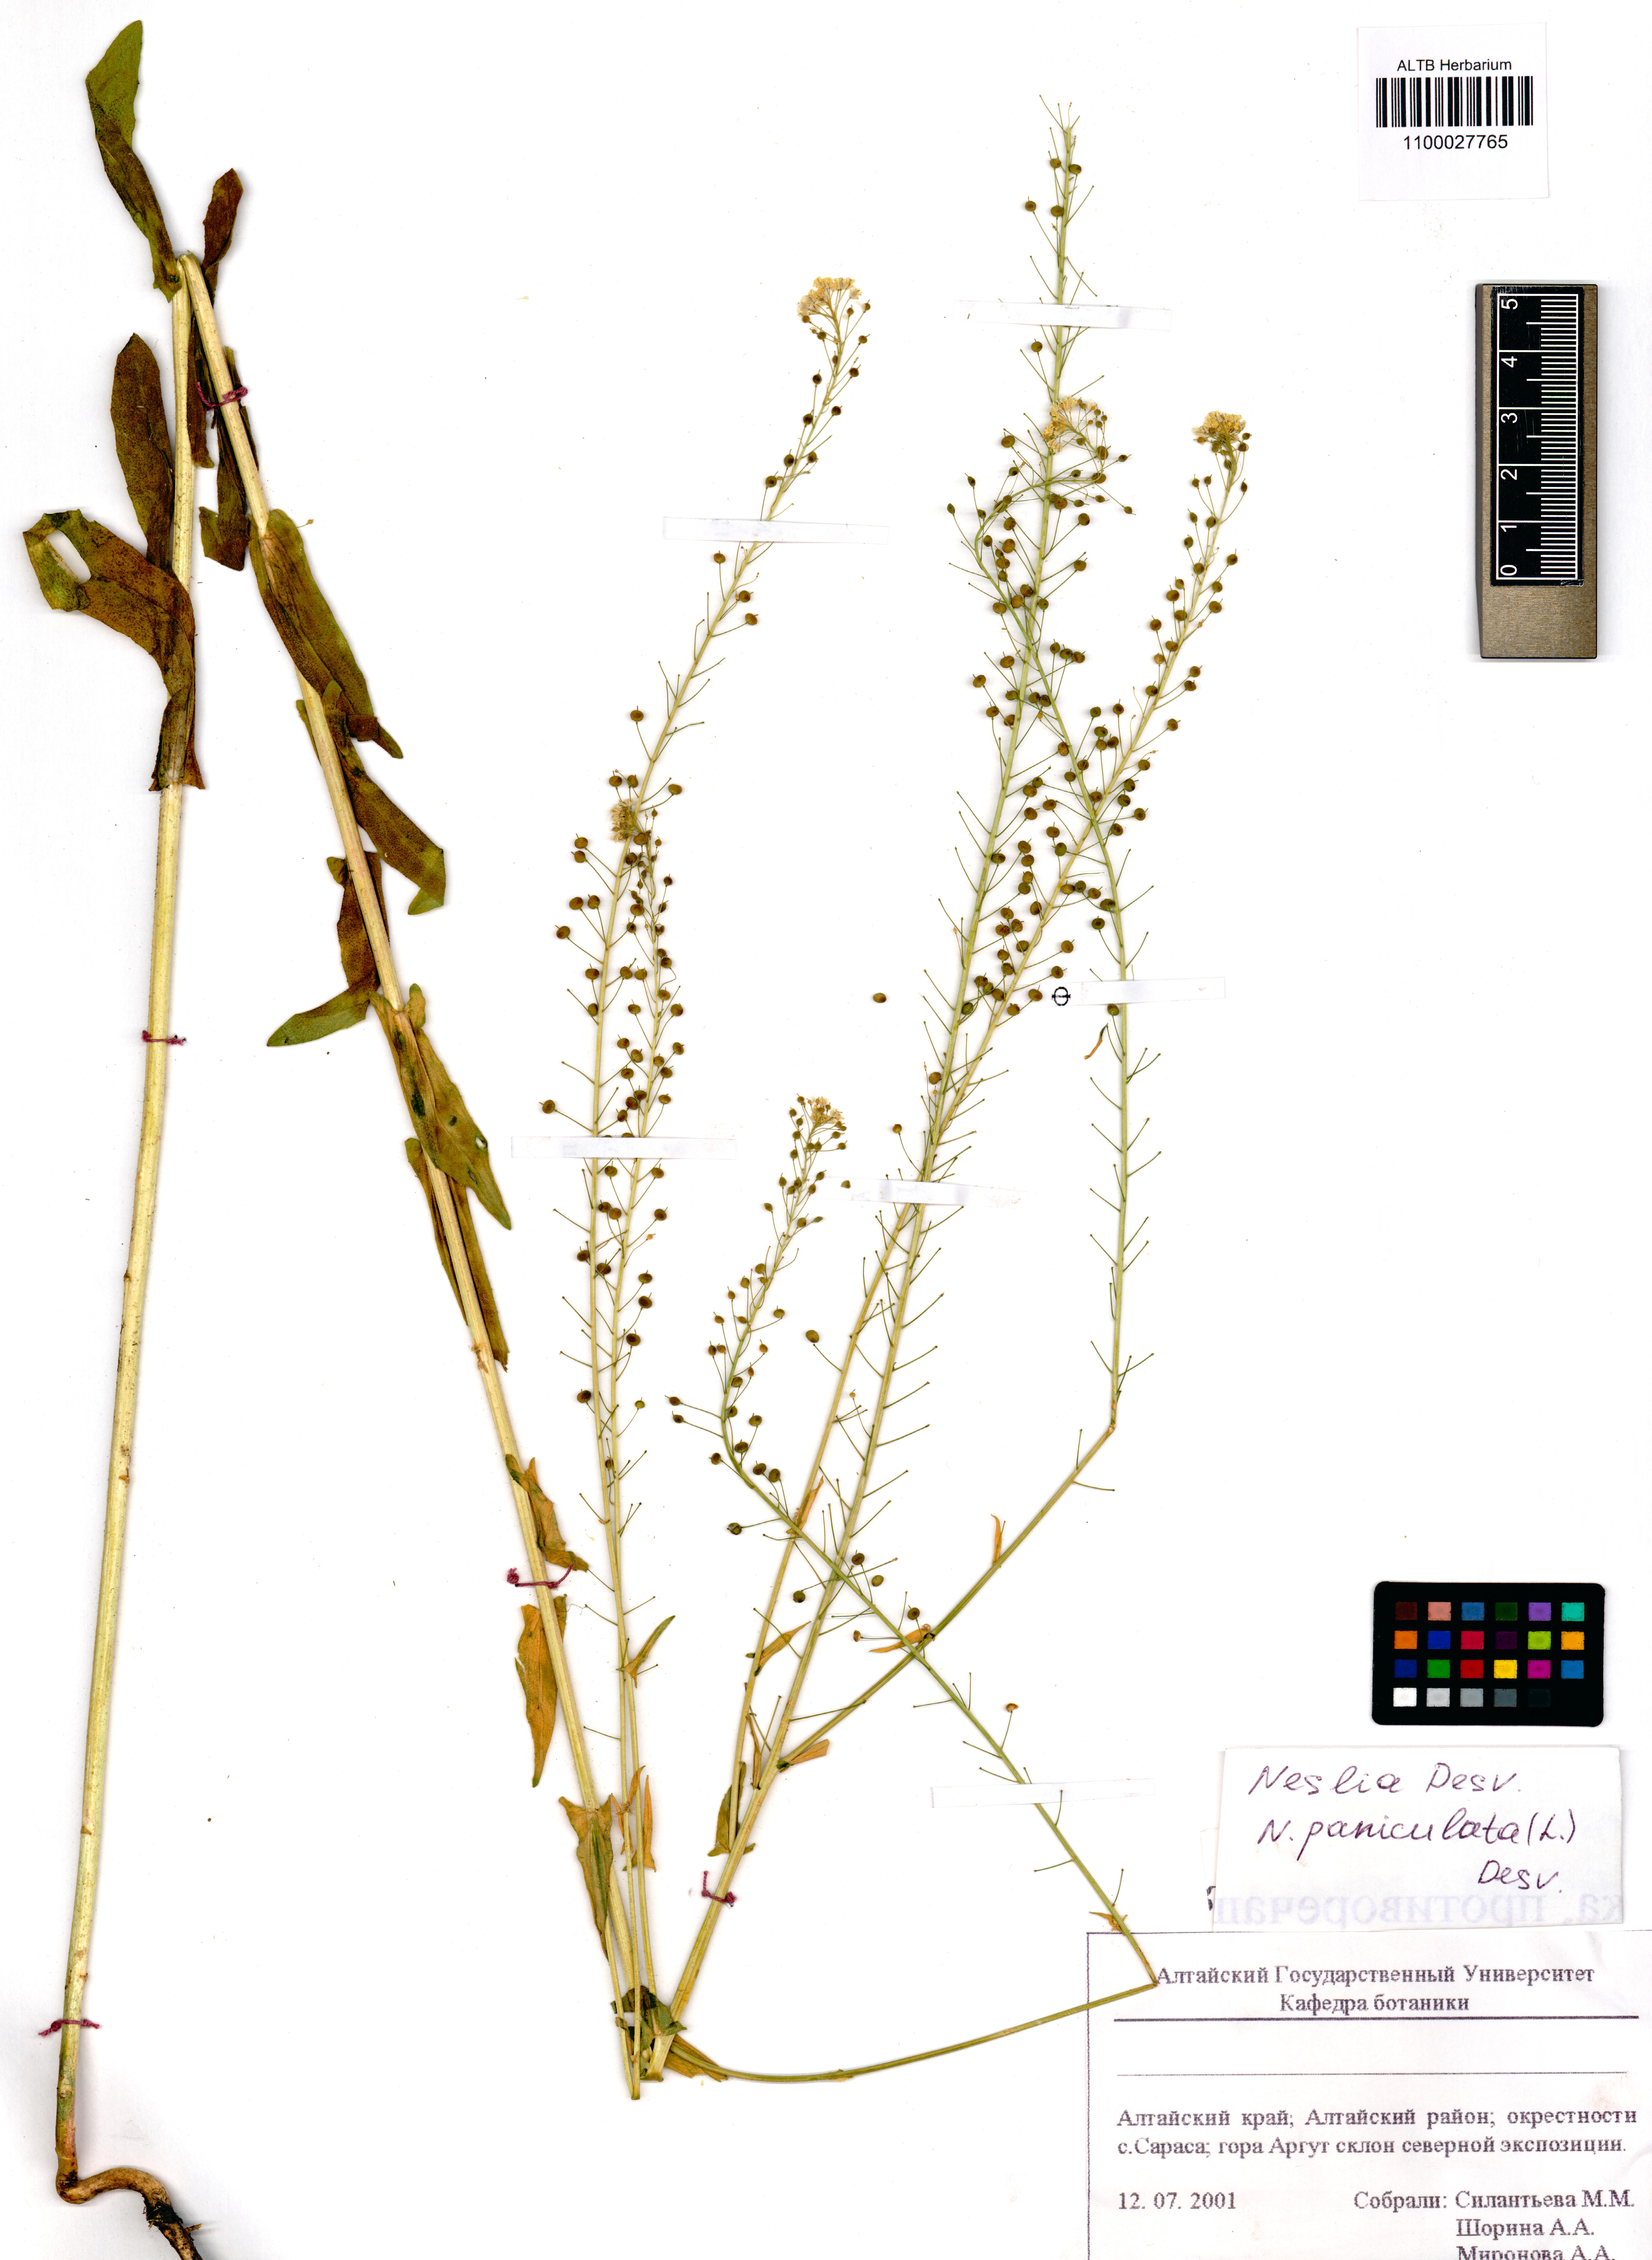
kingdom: Plantae
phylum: Tracheophyta
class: Magnoliopsida
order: Brassicales
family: Brassicaceae
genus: Neslia
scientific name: Neslia paniculata
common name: Ball mustard
